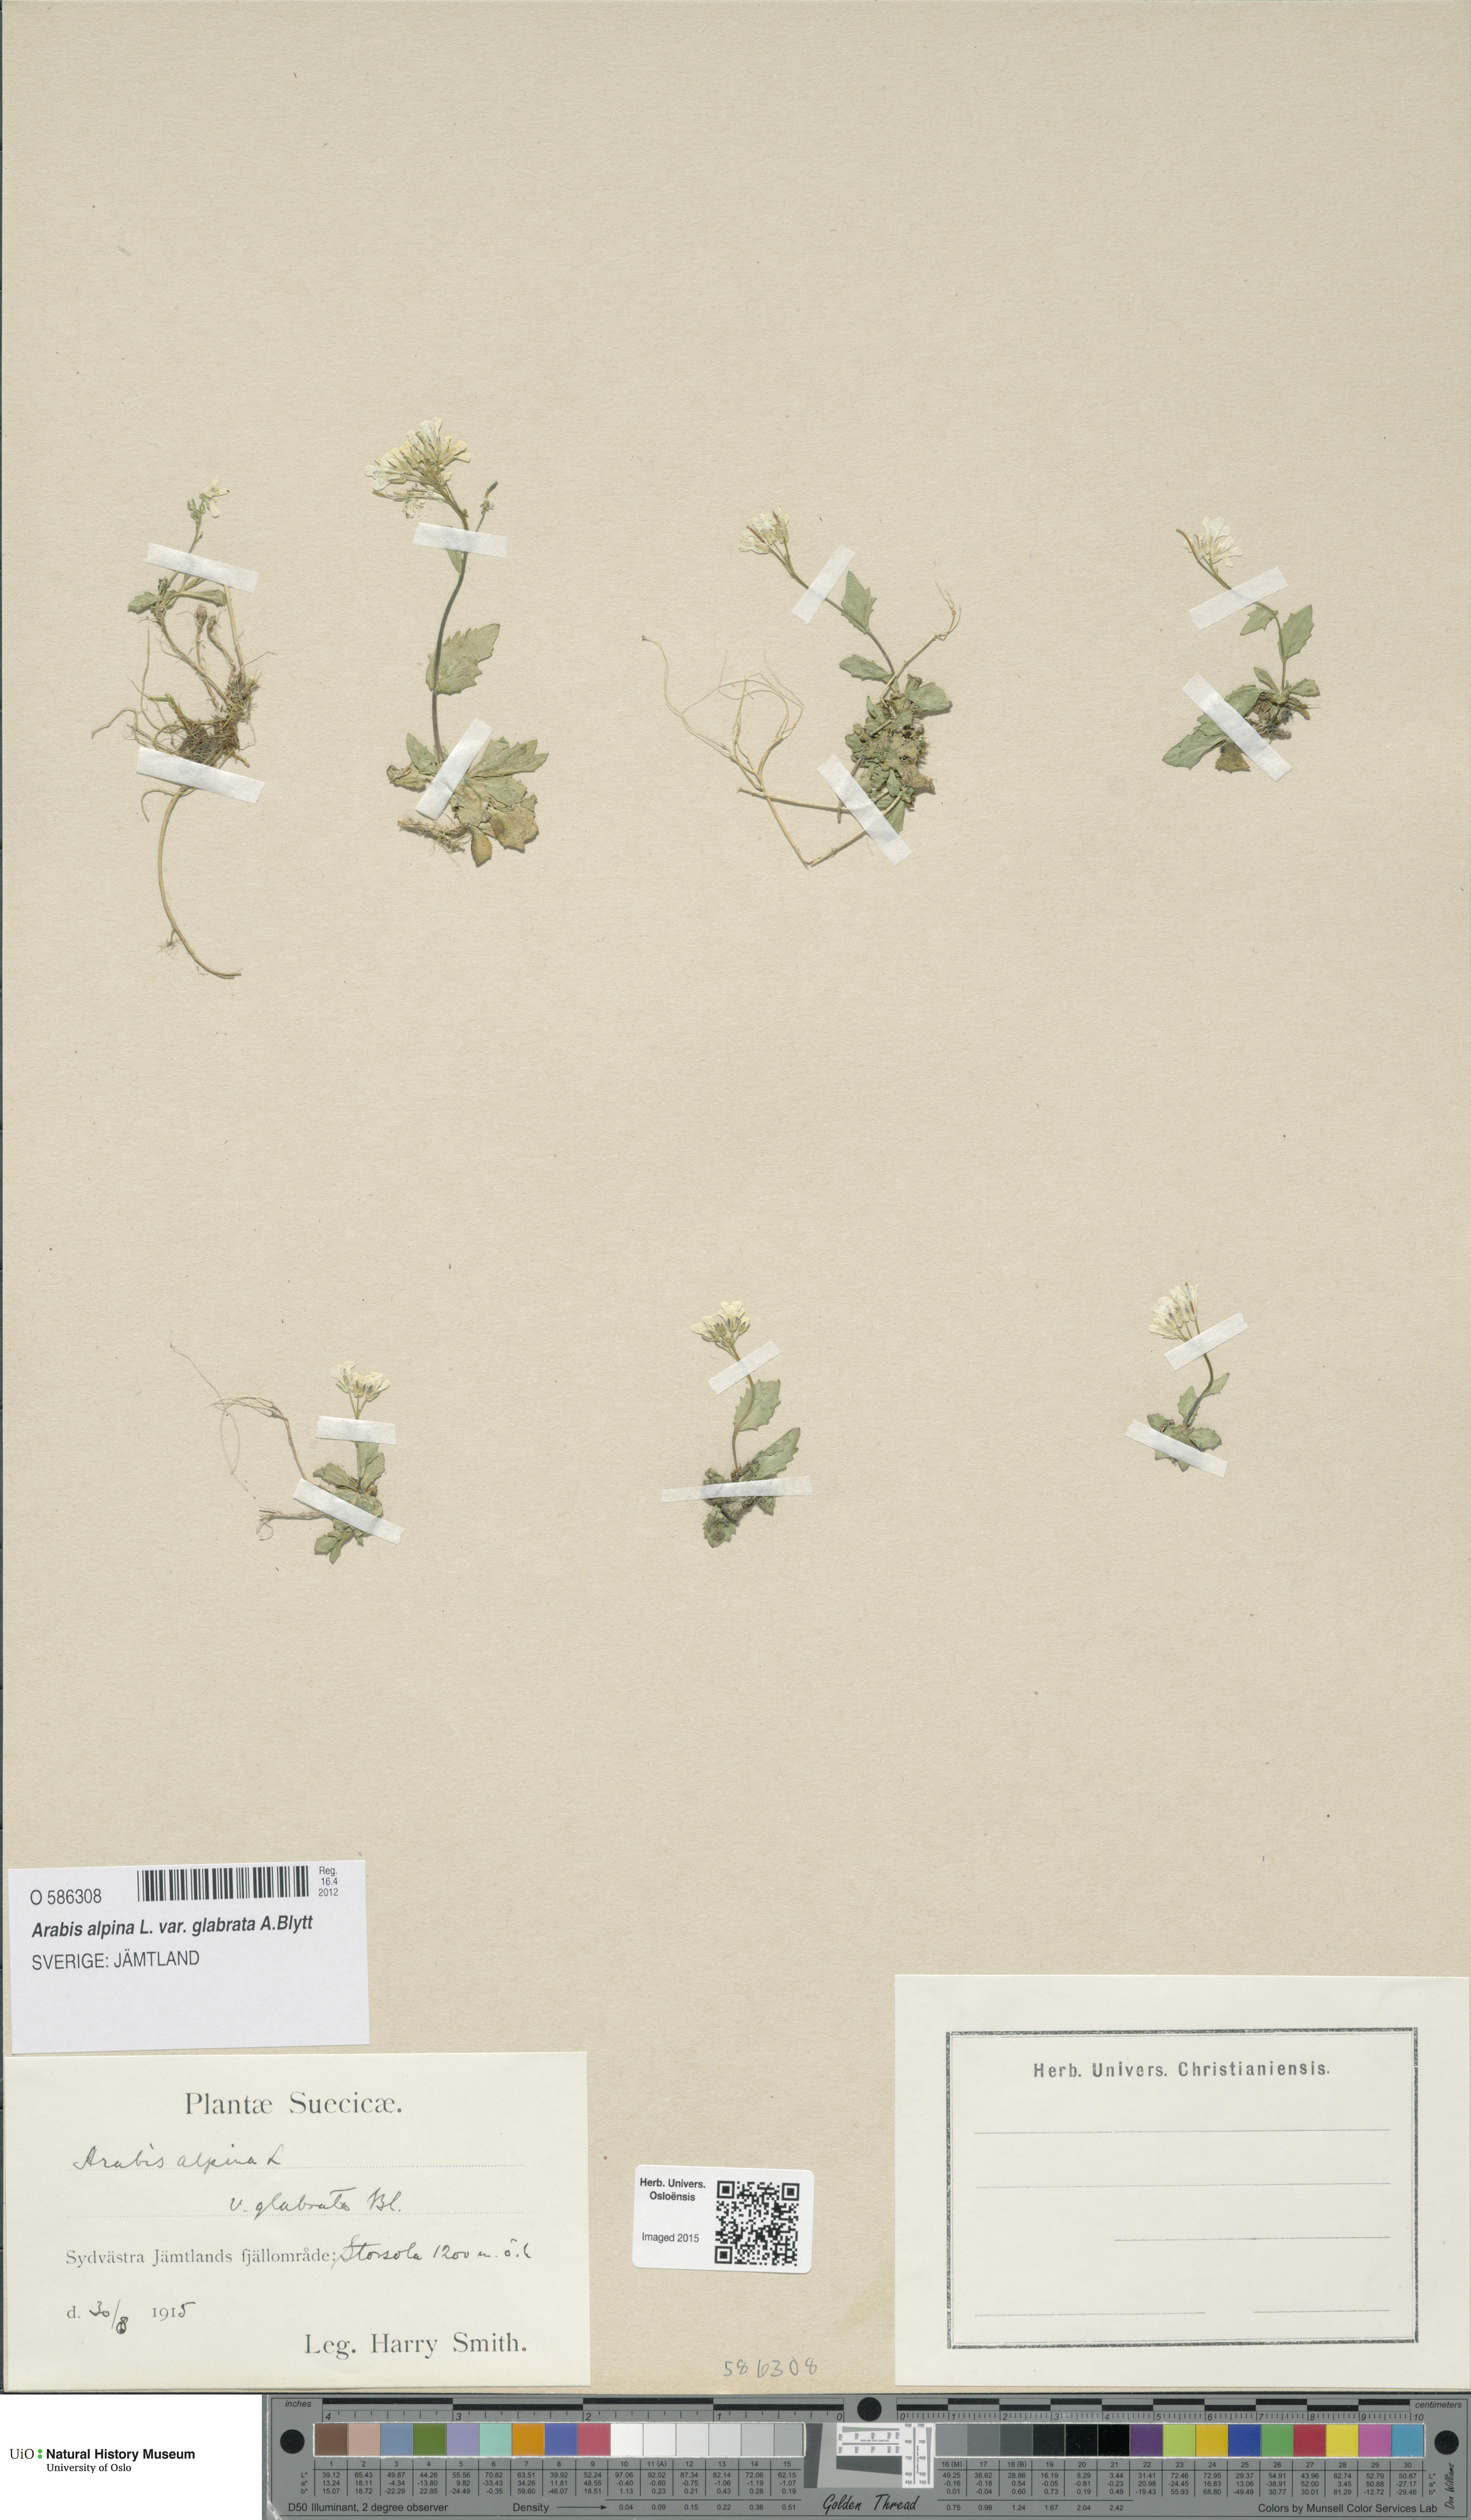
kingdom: Plantae
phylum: Tracheophyta
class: Magnoliopsida
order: Brassicales
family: Brassicaceae
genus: Arabis
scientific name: Arabis alpina
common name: Alpine rock-cress
